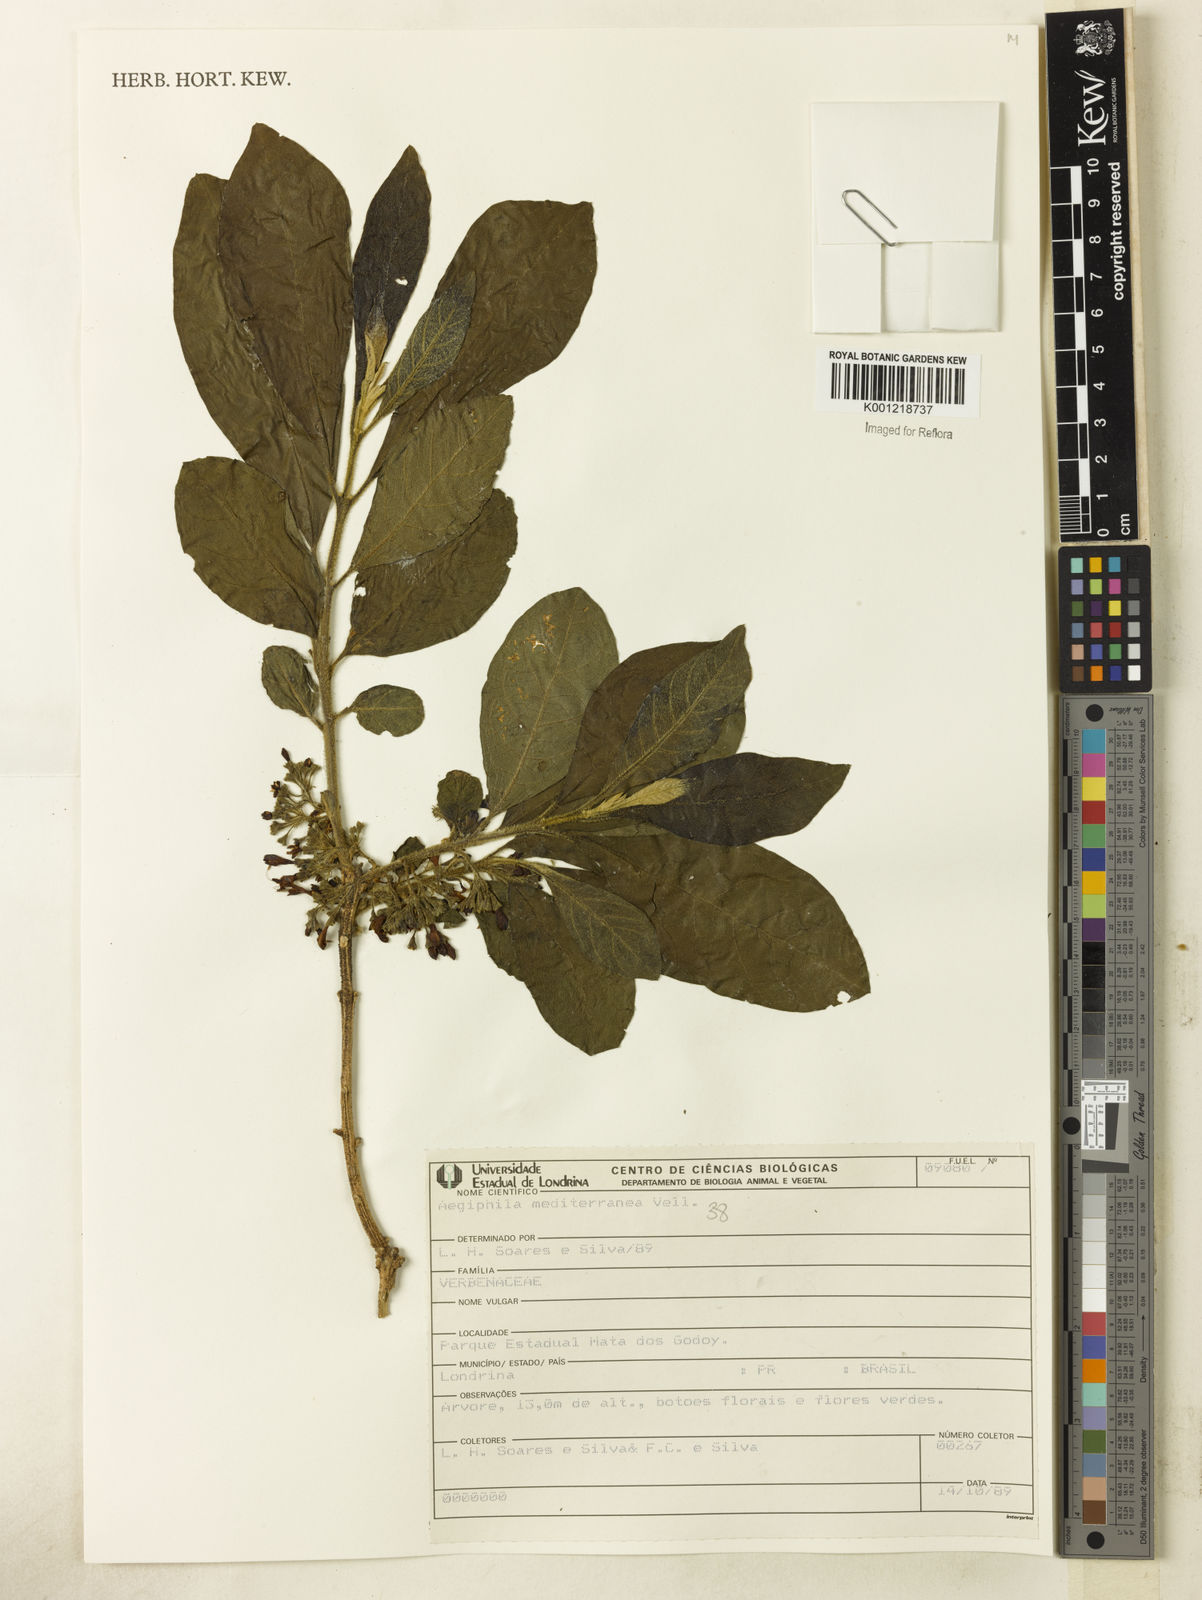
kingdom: Plantae
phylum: Tracheophyta
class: Magnoliopsida
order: Lamiales
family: Lamiaceae
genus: Aegiphila
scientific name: Aegiphila mediterranea
